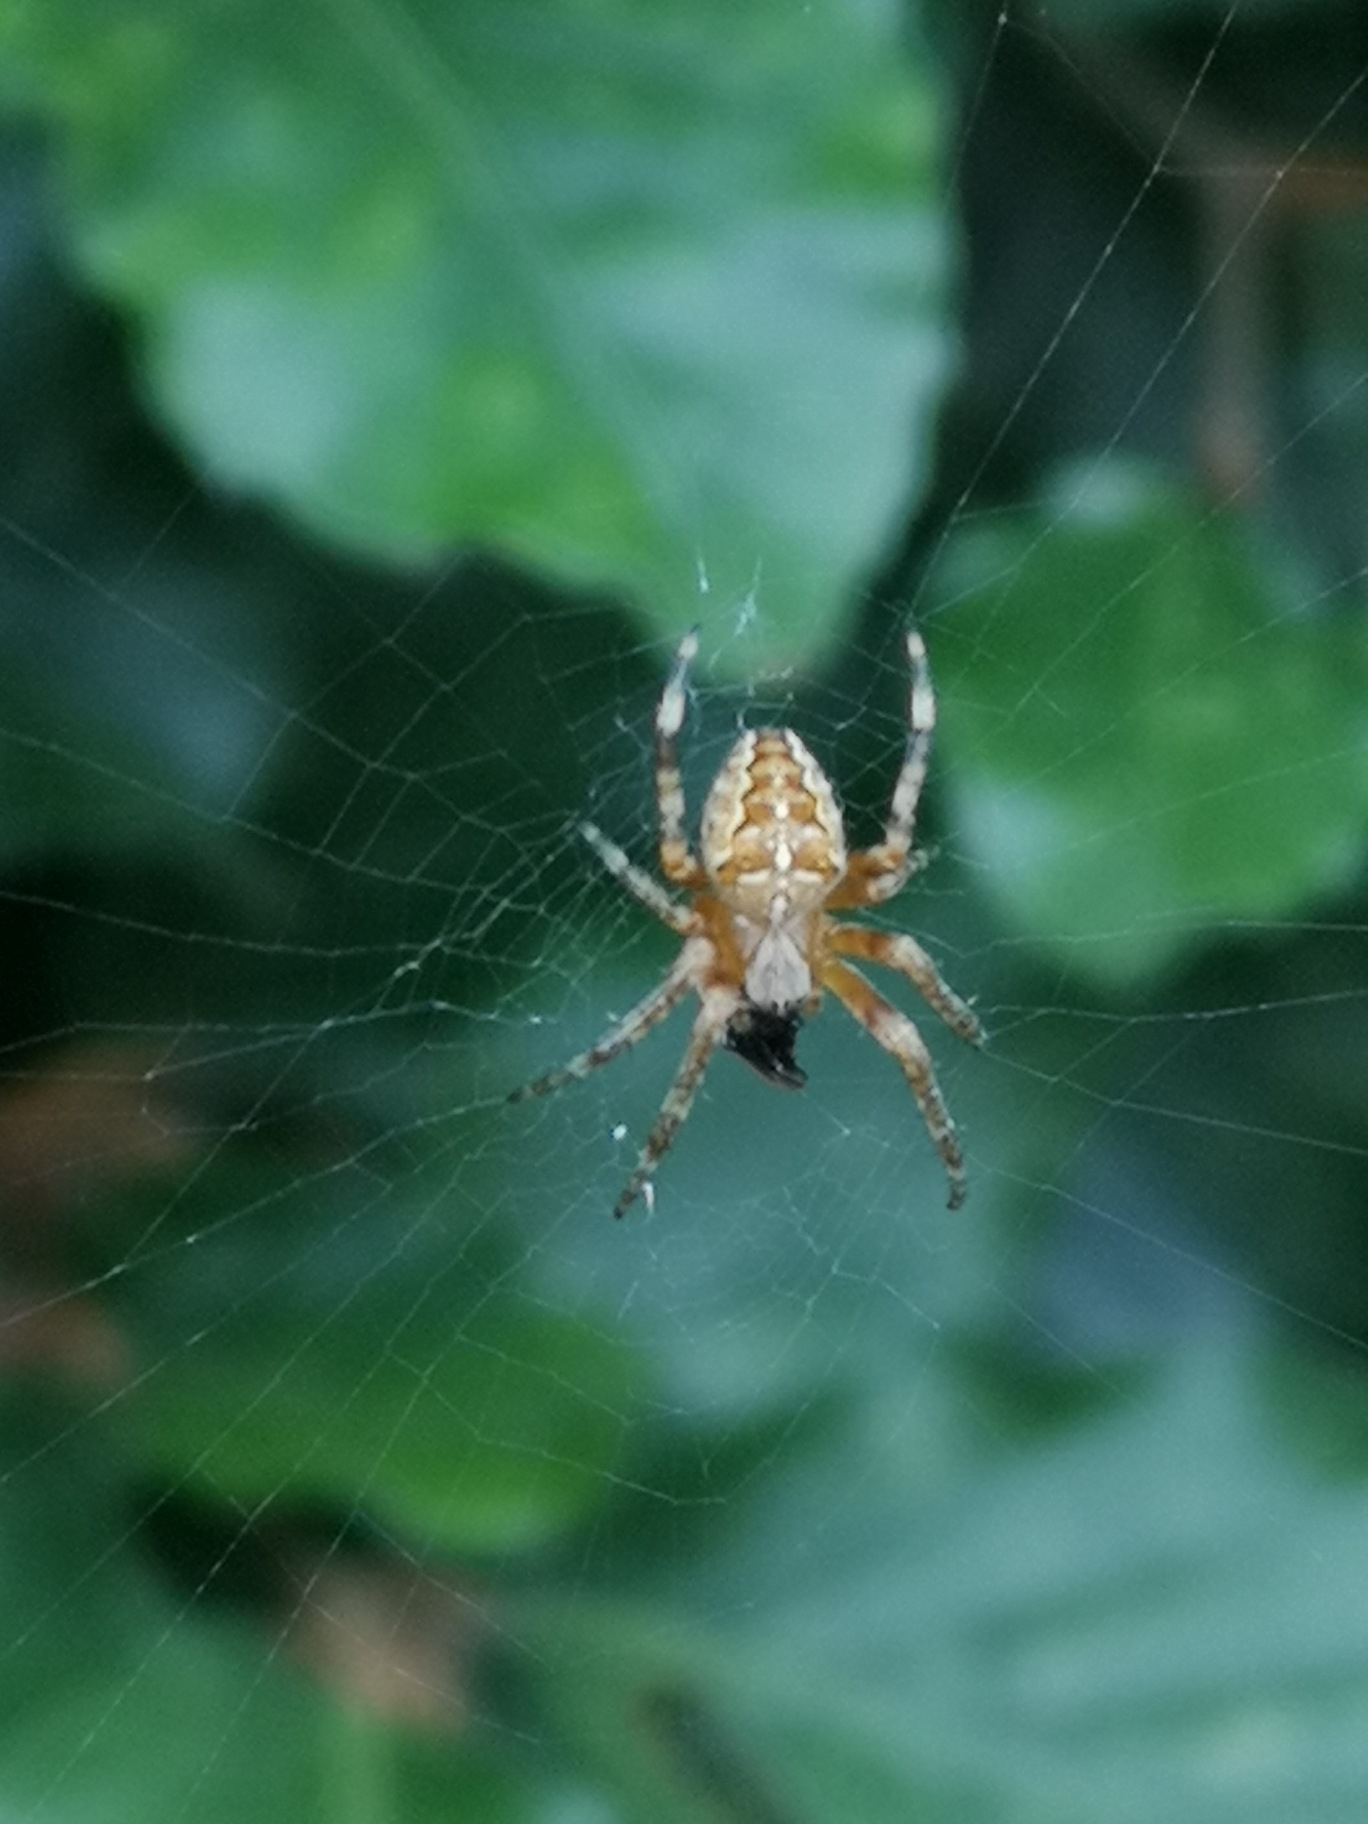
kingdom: Animalia
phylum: Arthropoda
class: Arachnida
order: Araneae
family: Araneidae
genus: Araneus
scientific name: Araneus diadematus
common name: Korsedderkop
